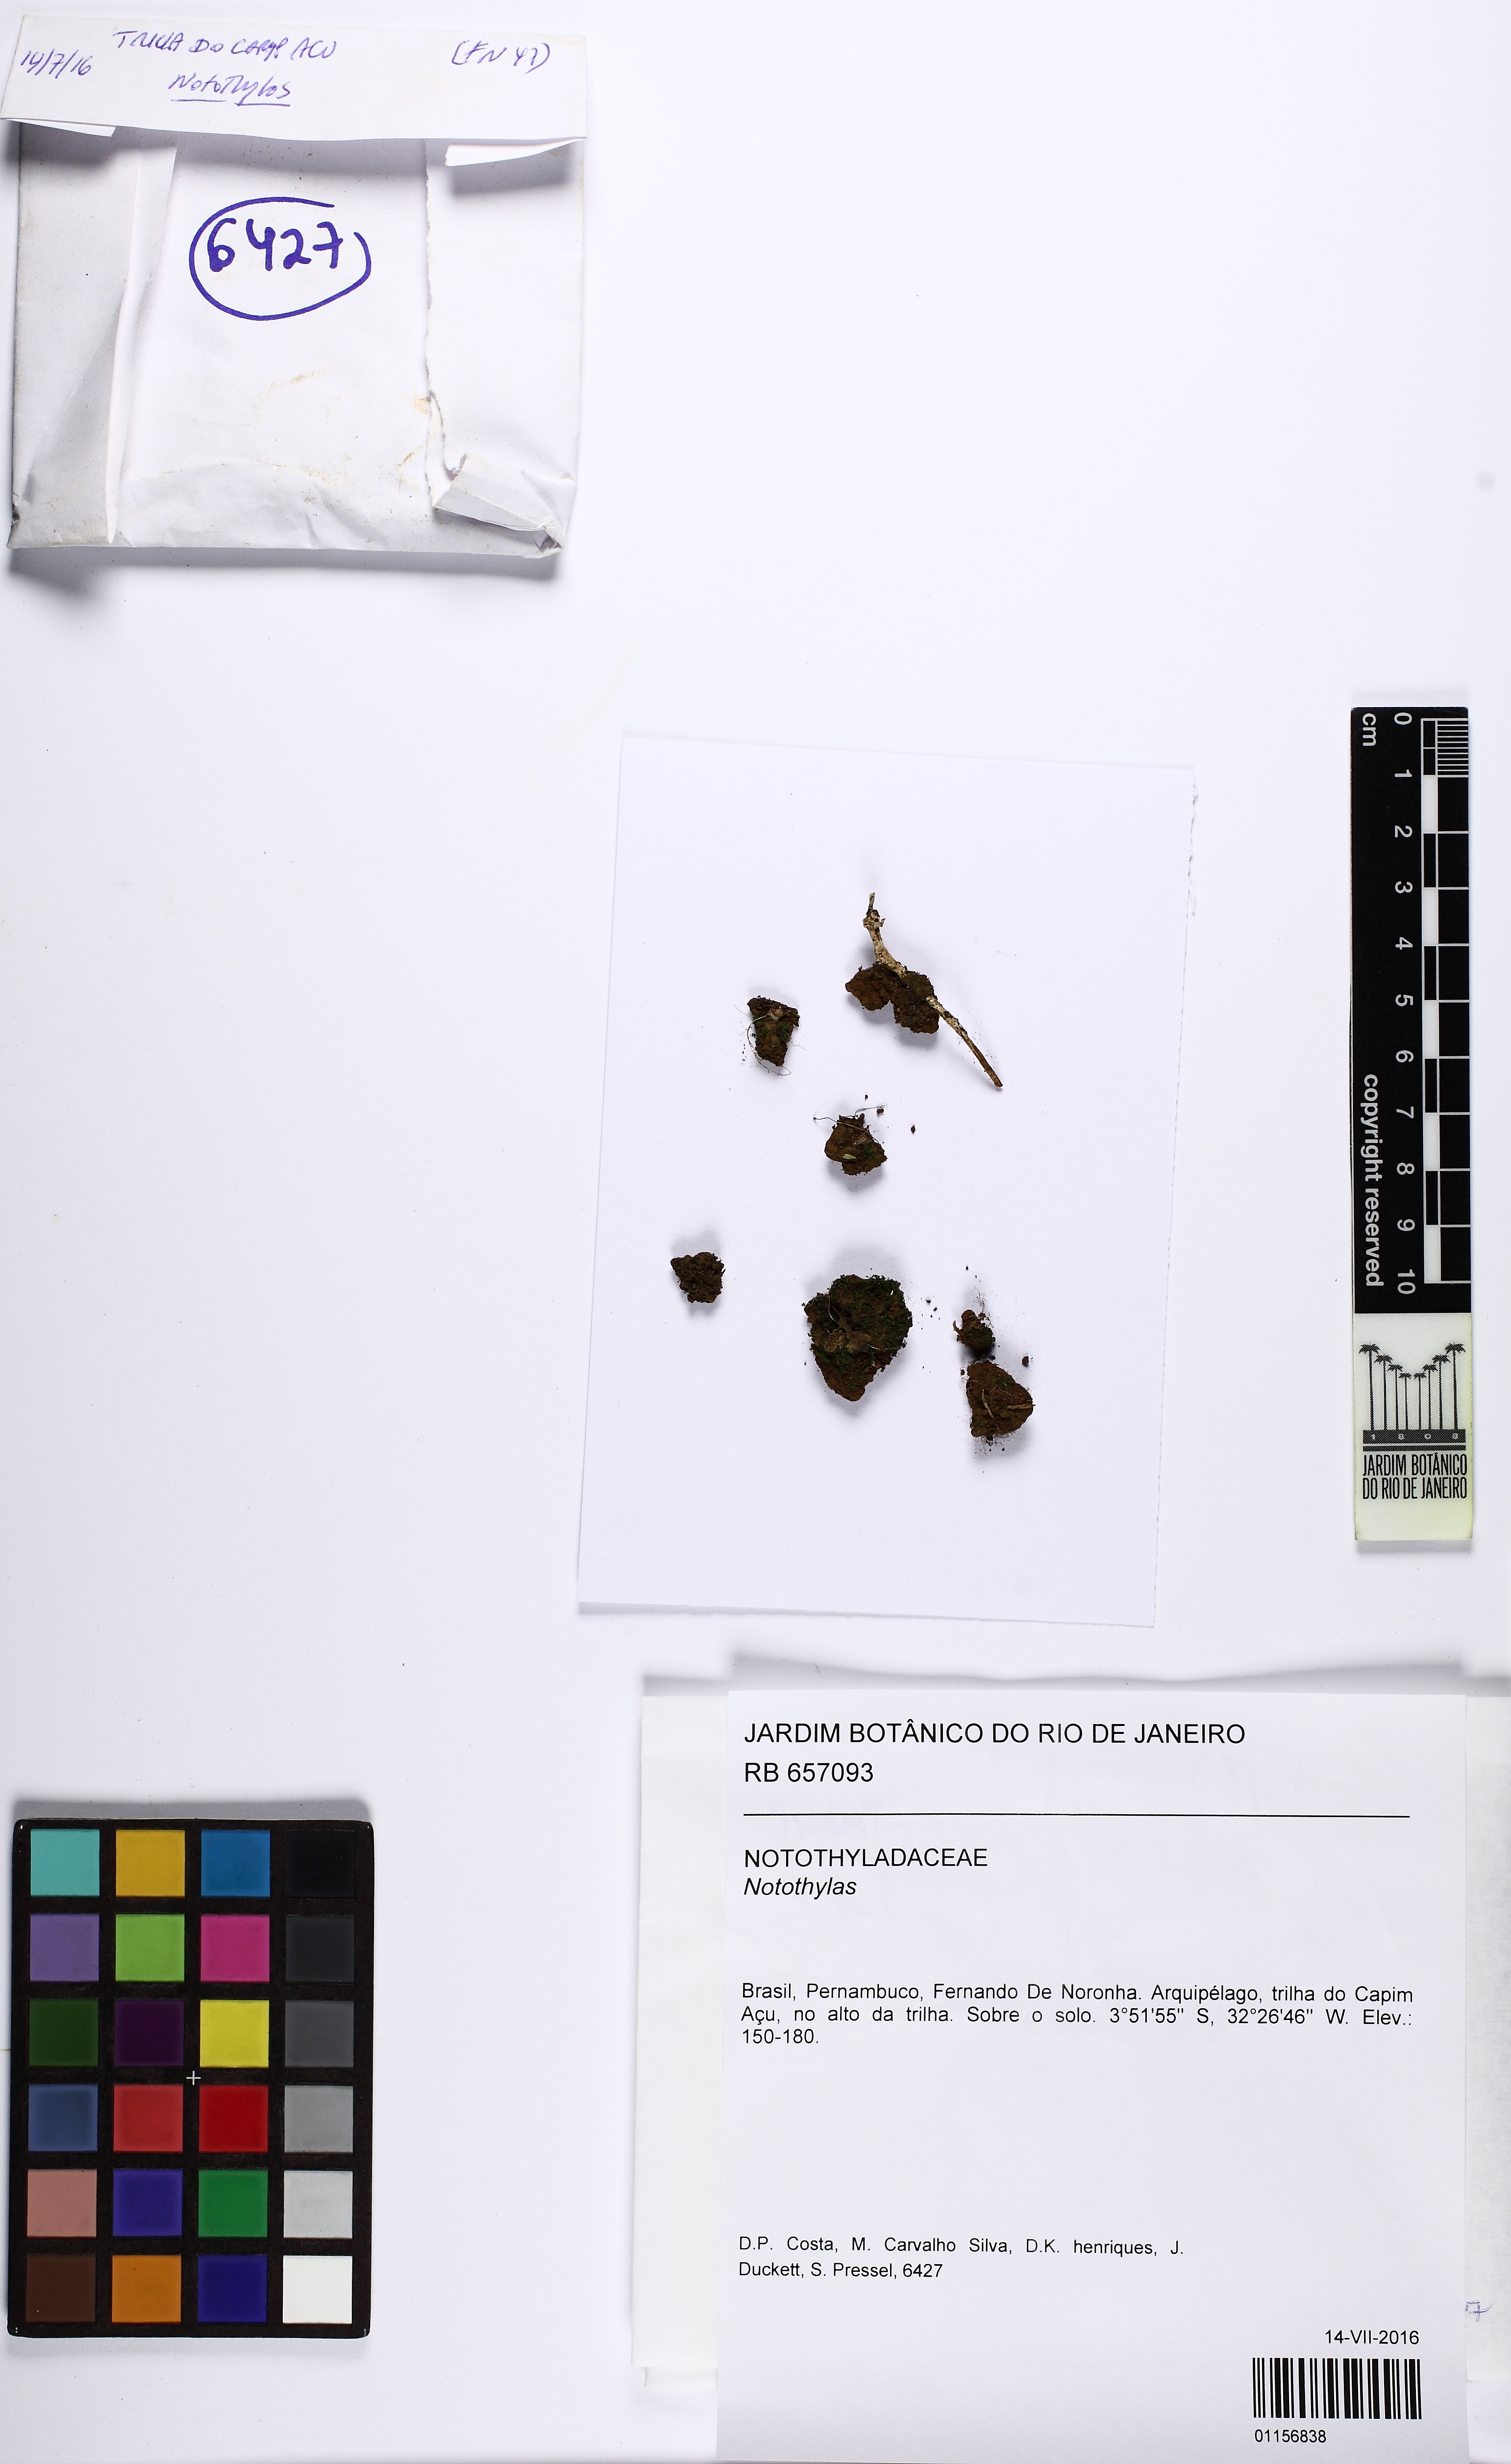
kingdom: Plantae
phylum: Anthocerotophyta
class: Anthocerotopsida
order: Notothyladales
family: Notothyladaceae
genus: Notothylas
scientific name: Notothylas javanica
